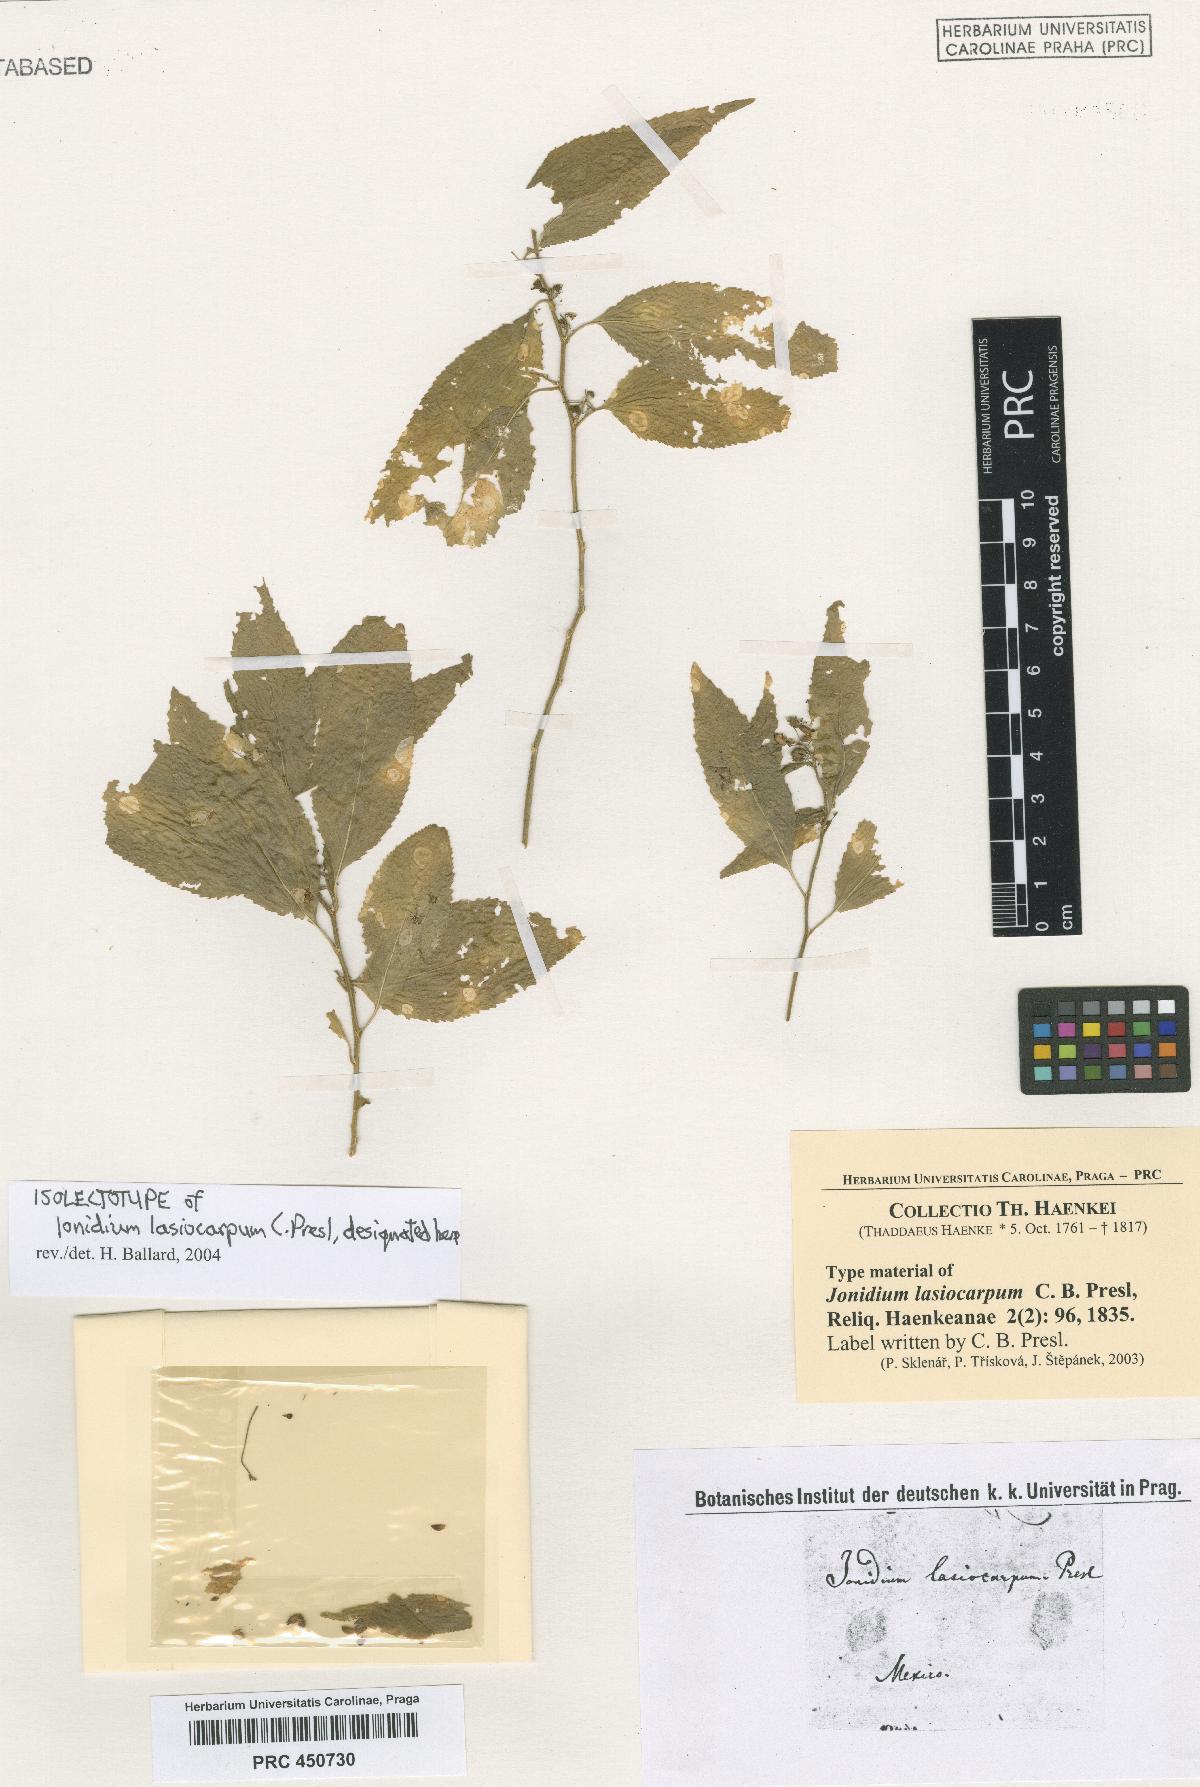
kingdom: Plantae
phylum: Tracheophyta
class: Magnoliopsida
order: Malpighiales
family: Violaceae
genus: Hybanthus
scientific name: Hybanthus serrulatus
